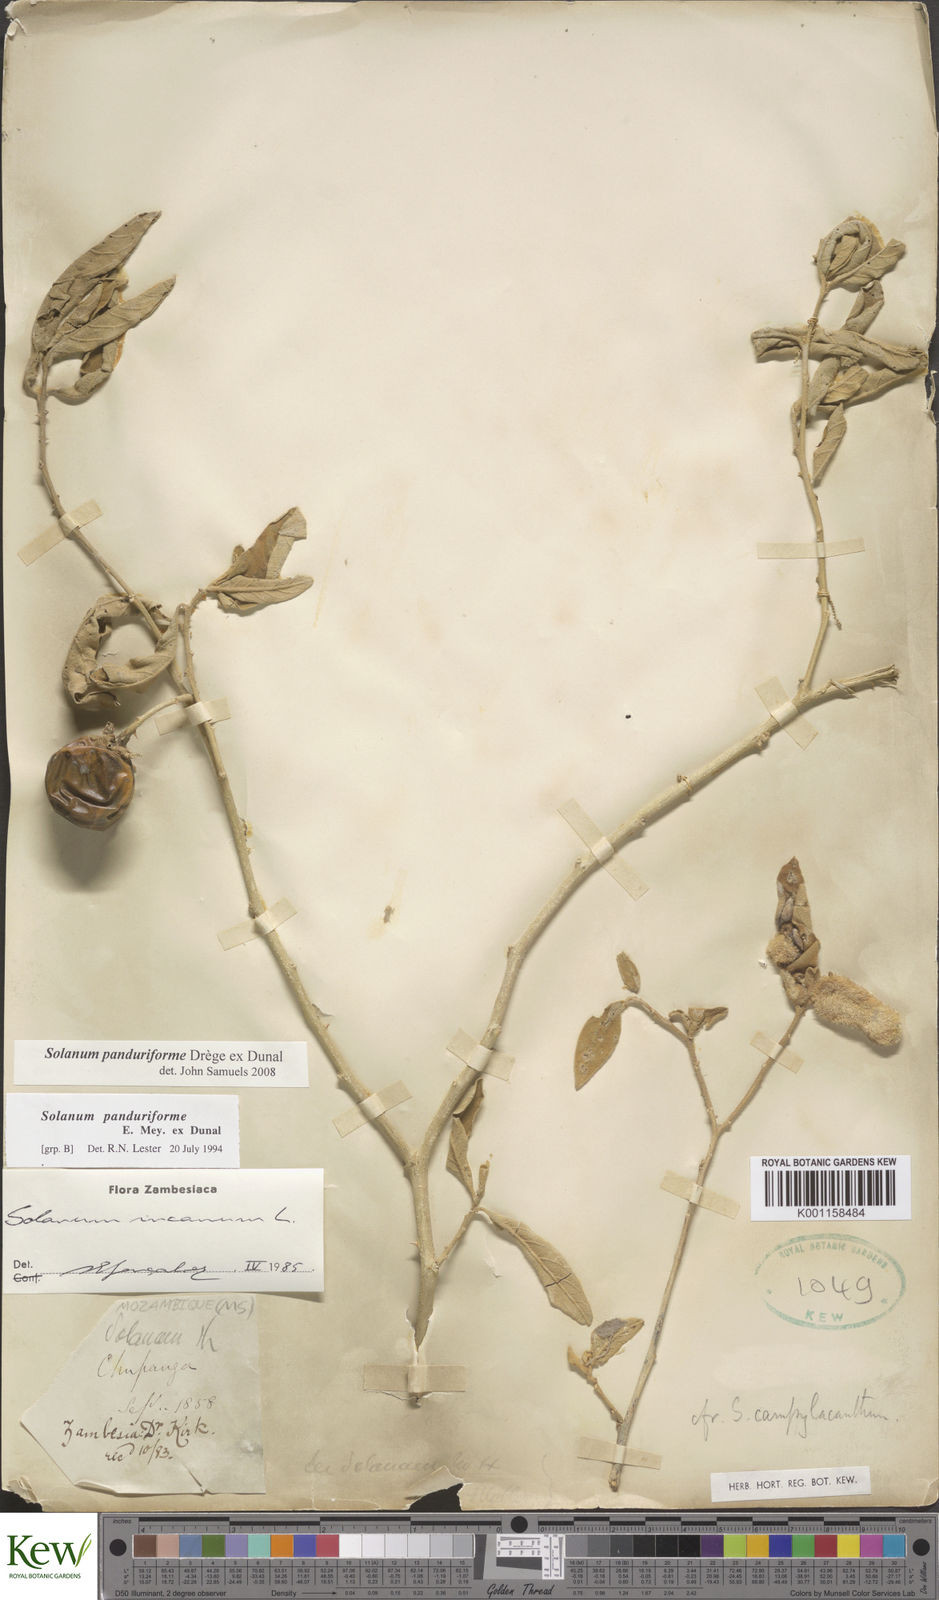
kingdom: Plantae
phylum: Tracheophyta
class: Magnoliopsida
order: Solanales
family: Solanaceae
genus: Solanum
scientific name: Solanum campylacanthum
